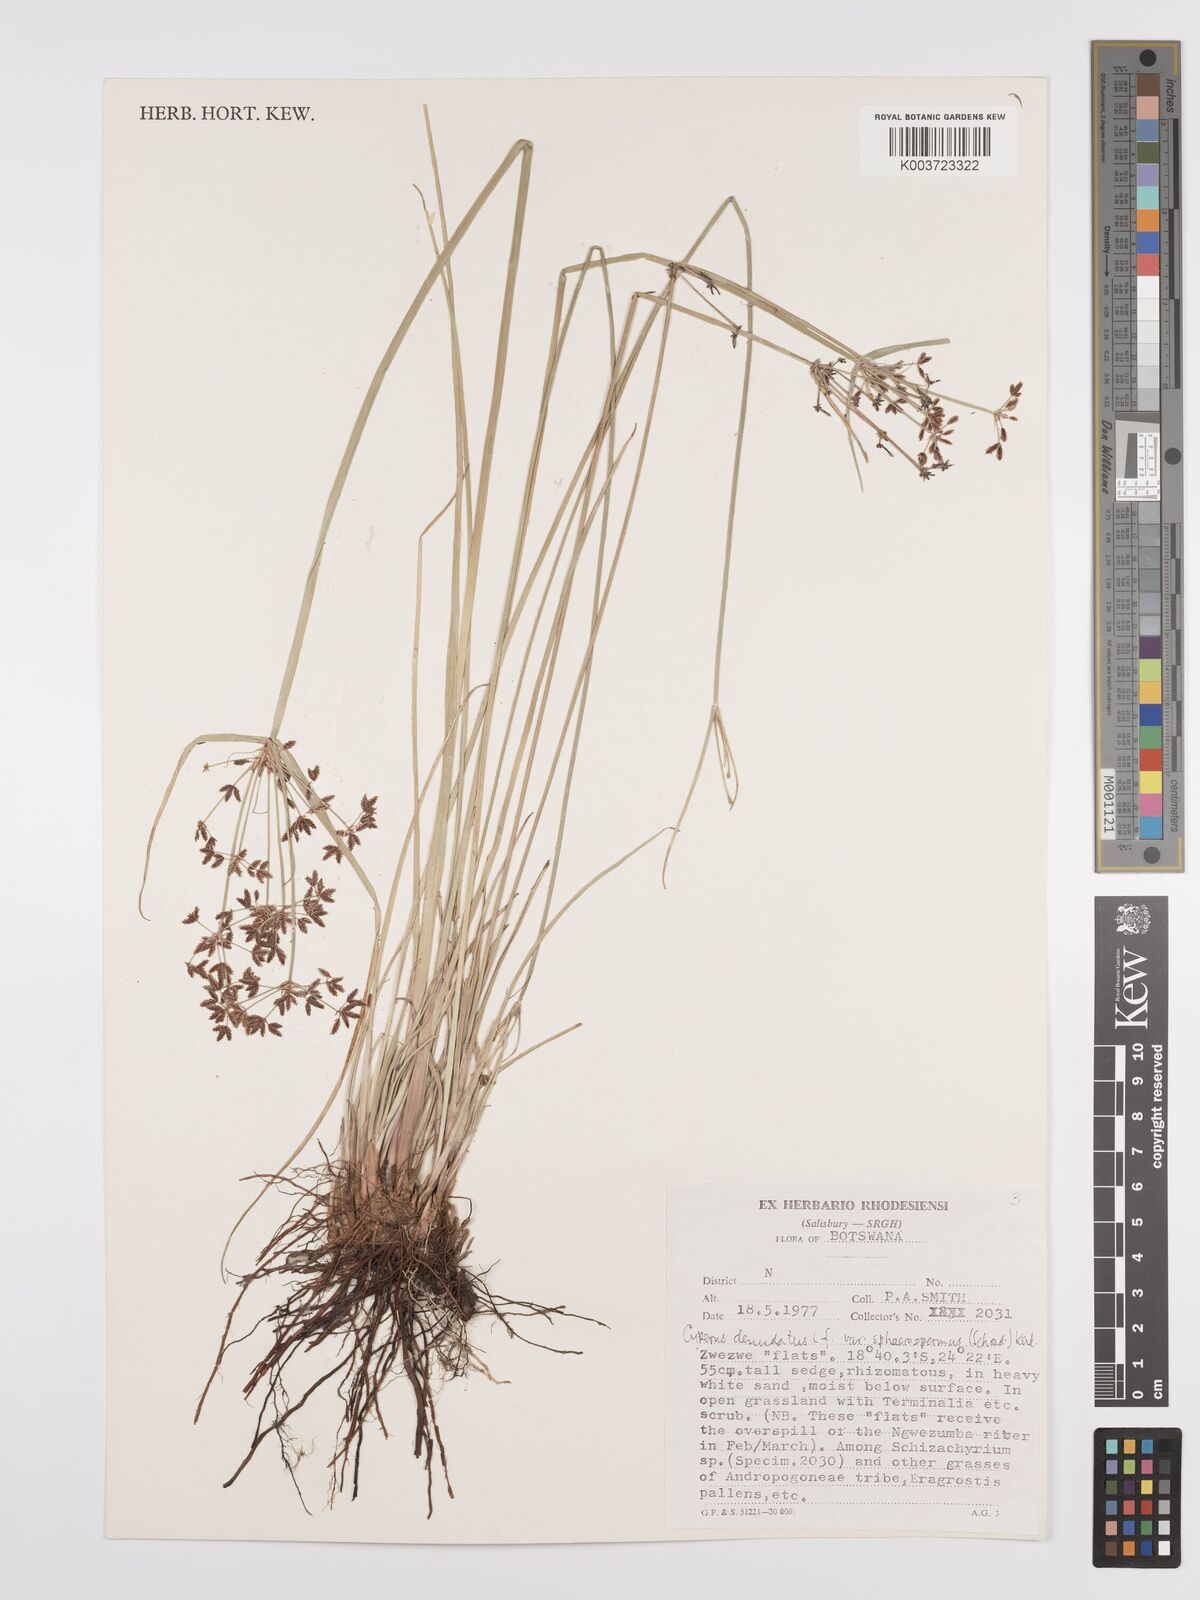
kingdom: Plantae
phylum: Tracheophyta
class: Liliopsida
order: Poales
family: Cyperaceae
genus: Cyperus
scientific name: Cyperus denudatus
